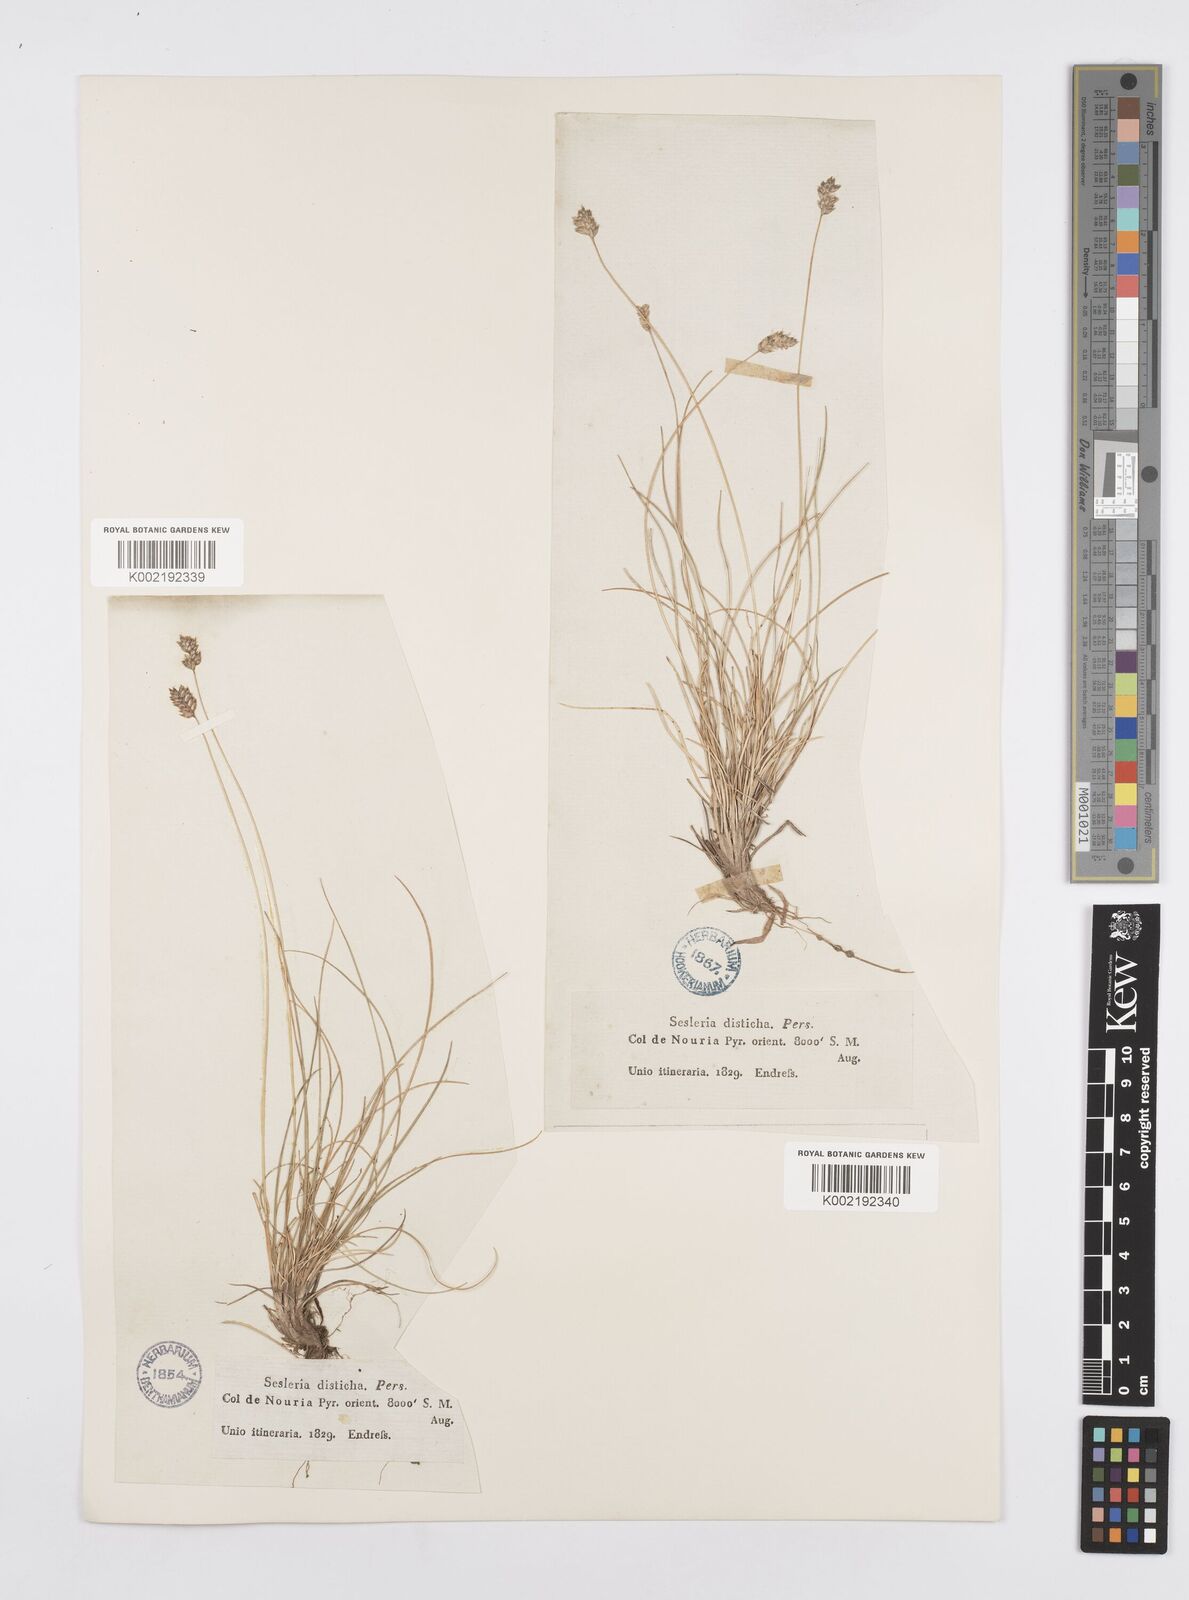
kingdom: Plantae
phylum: Tracheophyta
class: Liliopsida
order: Poales
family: Poaceae
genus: Oreochloa
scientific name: Oreochloa elegans
